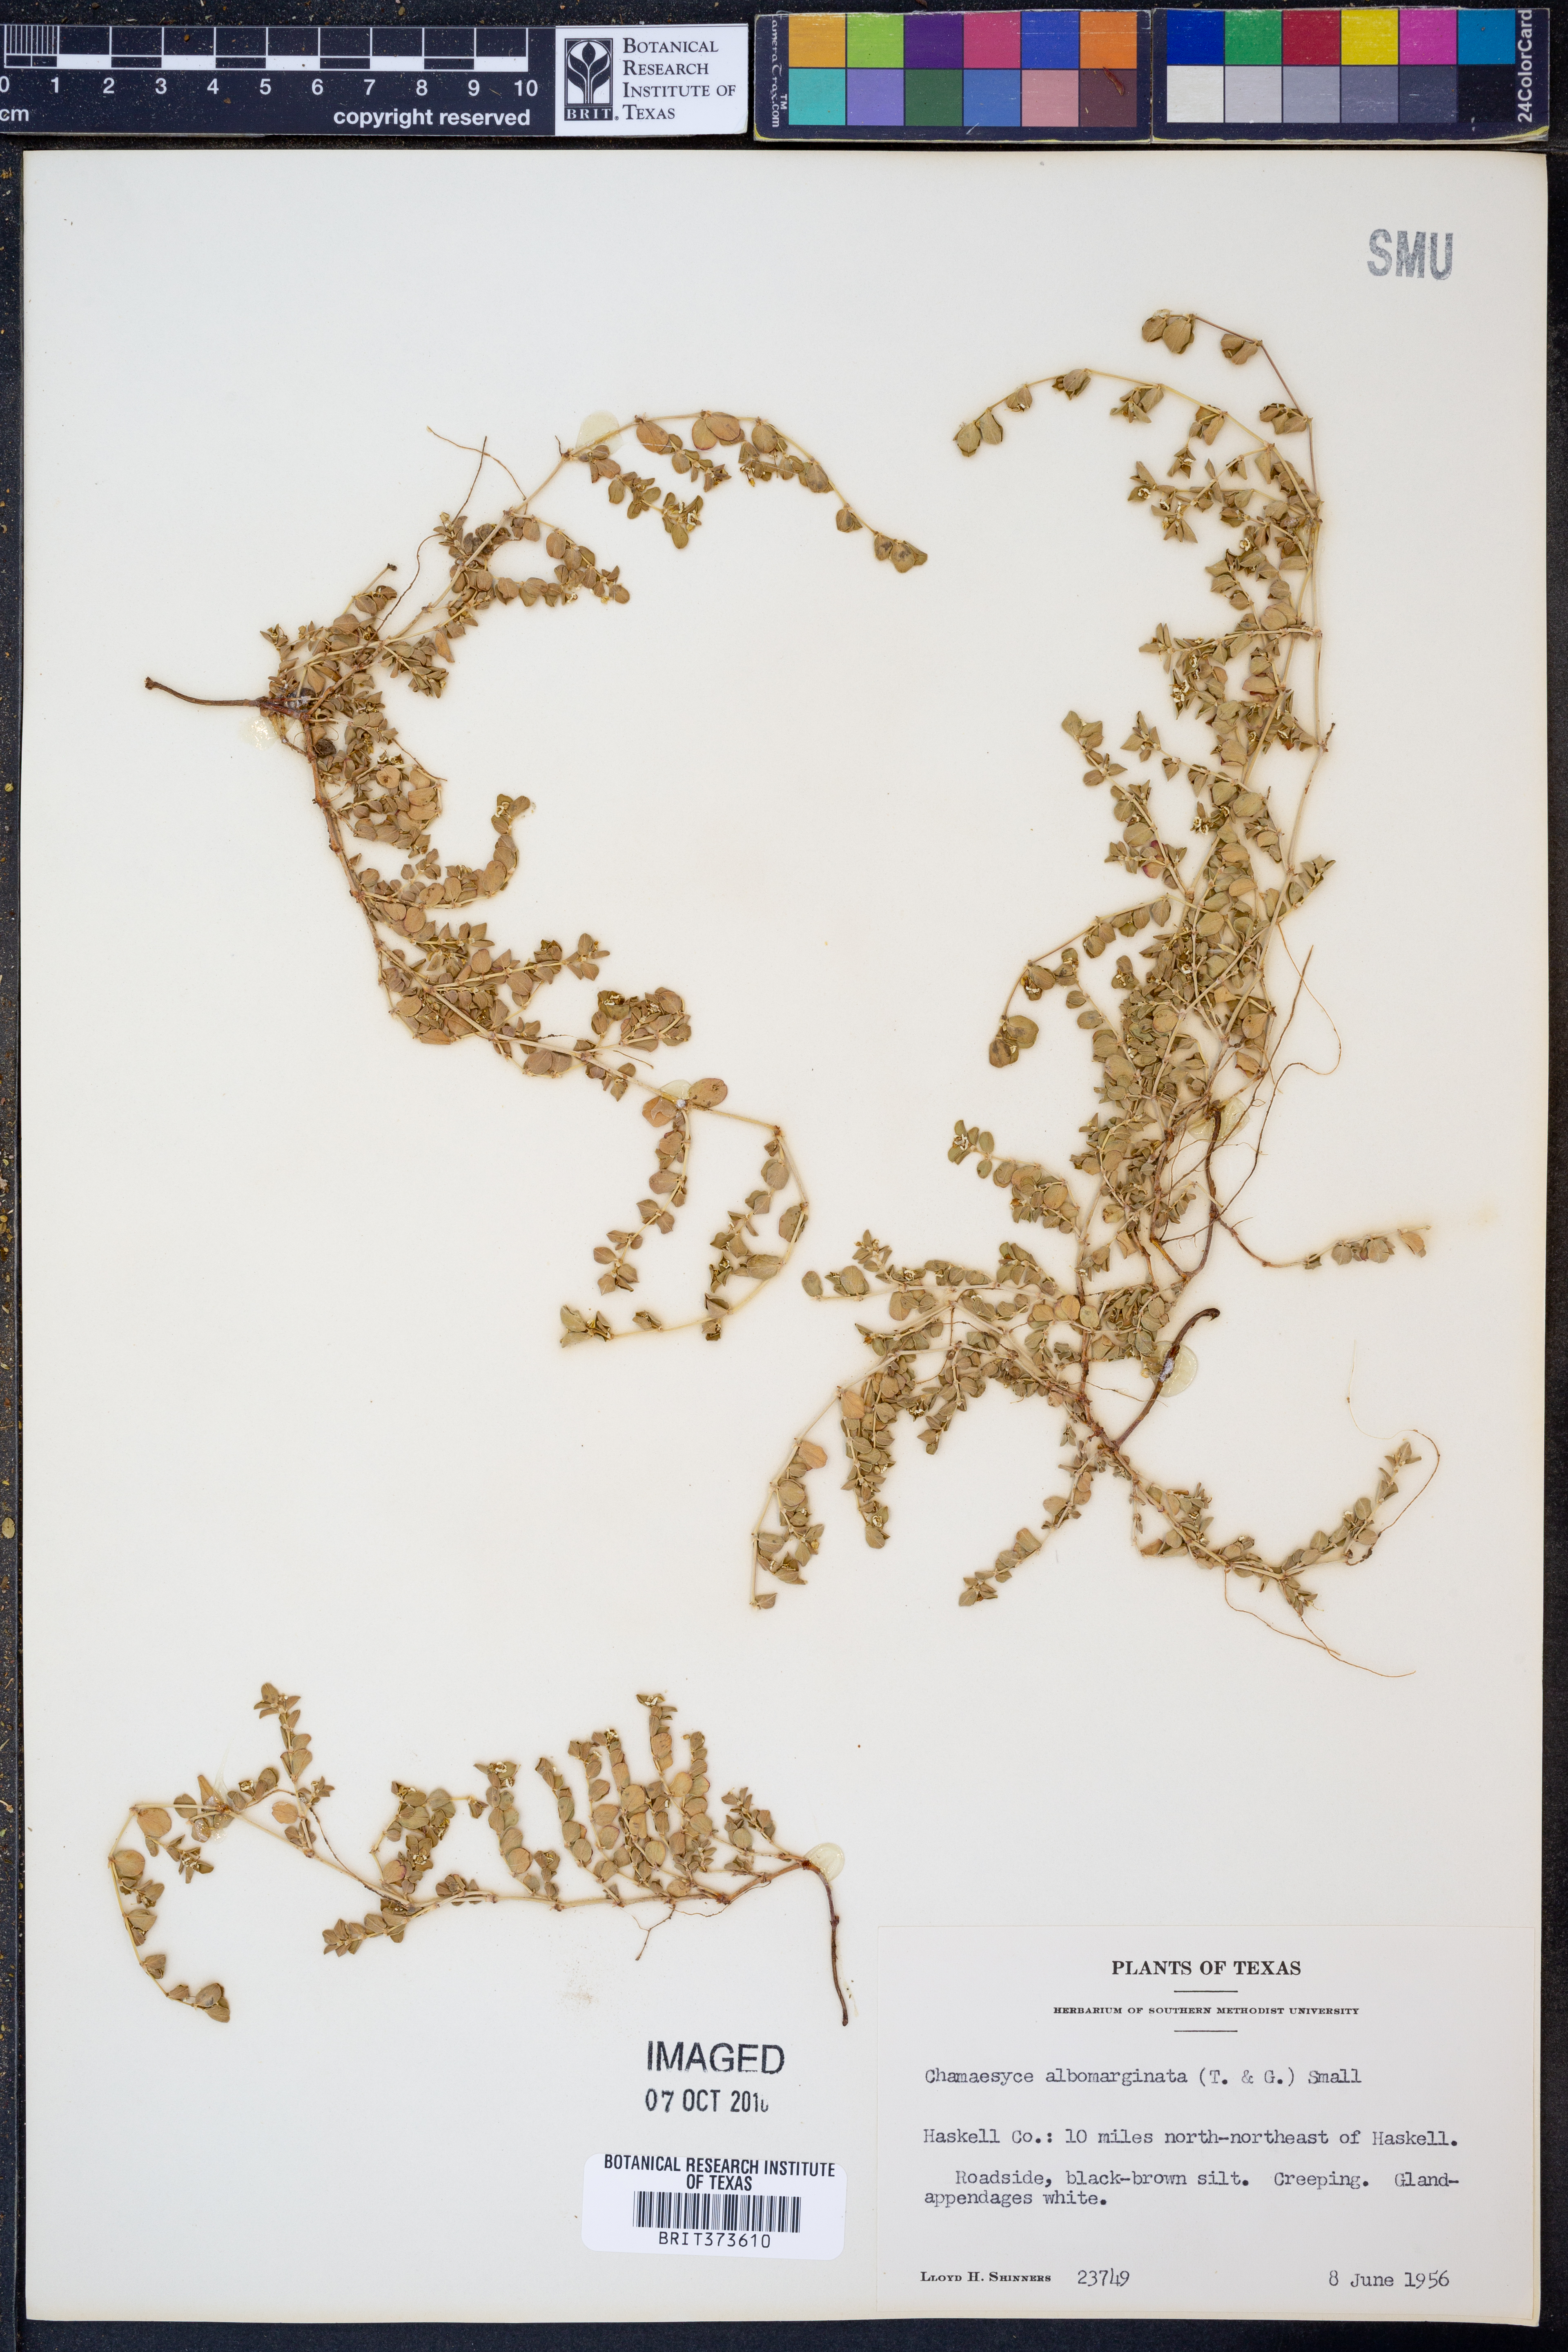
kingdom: Plantae
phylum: Tracheophyta
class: Magnoliopsida
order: Malpighiales
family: Euphorbiaceae
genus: Euphorbia
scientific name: Euphorbia albomarginata
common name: Whitemargin sandmat
